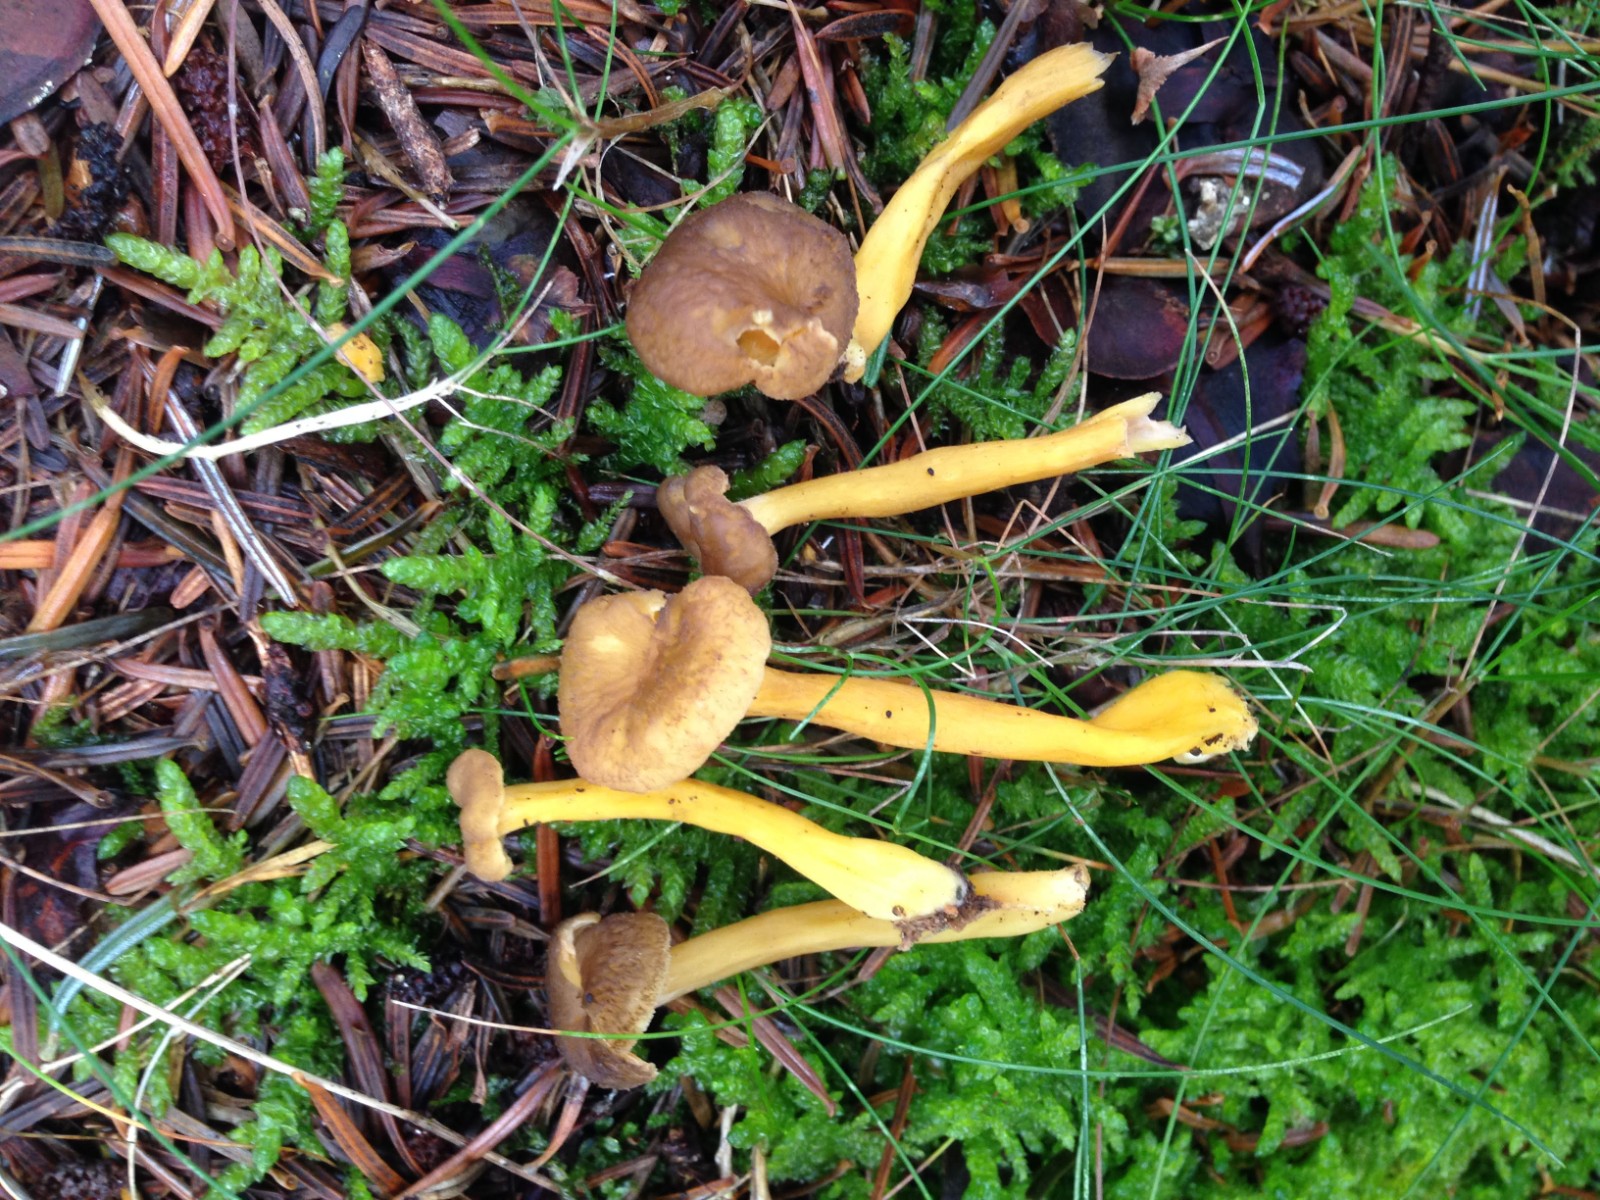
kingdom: Fungi
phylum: Basidiomycota
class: Agaricomycetes
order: Cantharellales
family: Hydnaceae
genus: Craterellus
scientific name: Craterellus tubaeformis
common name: tragt-kantarel
